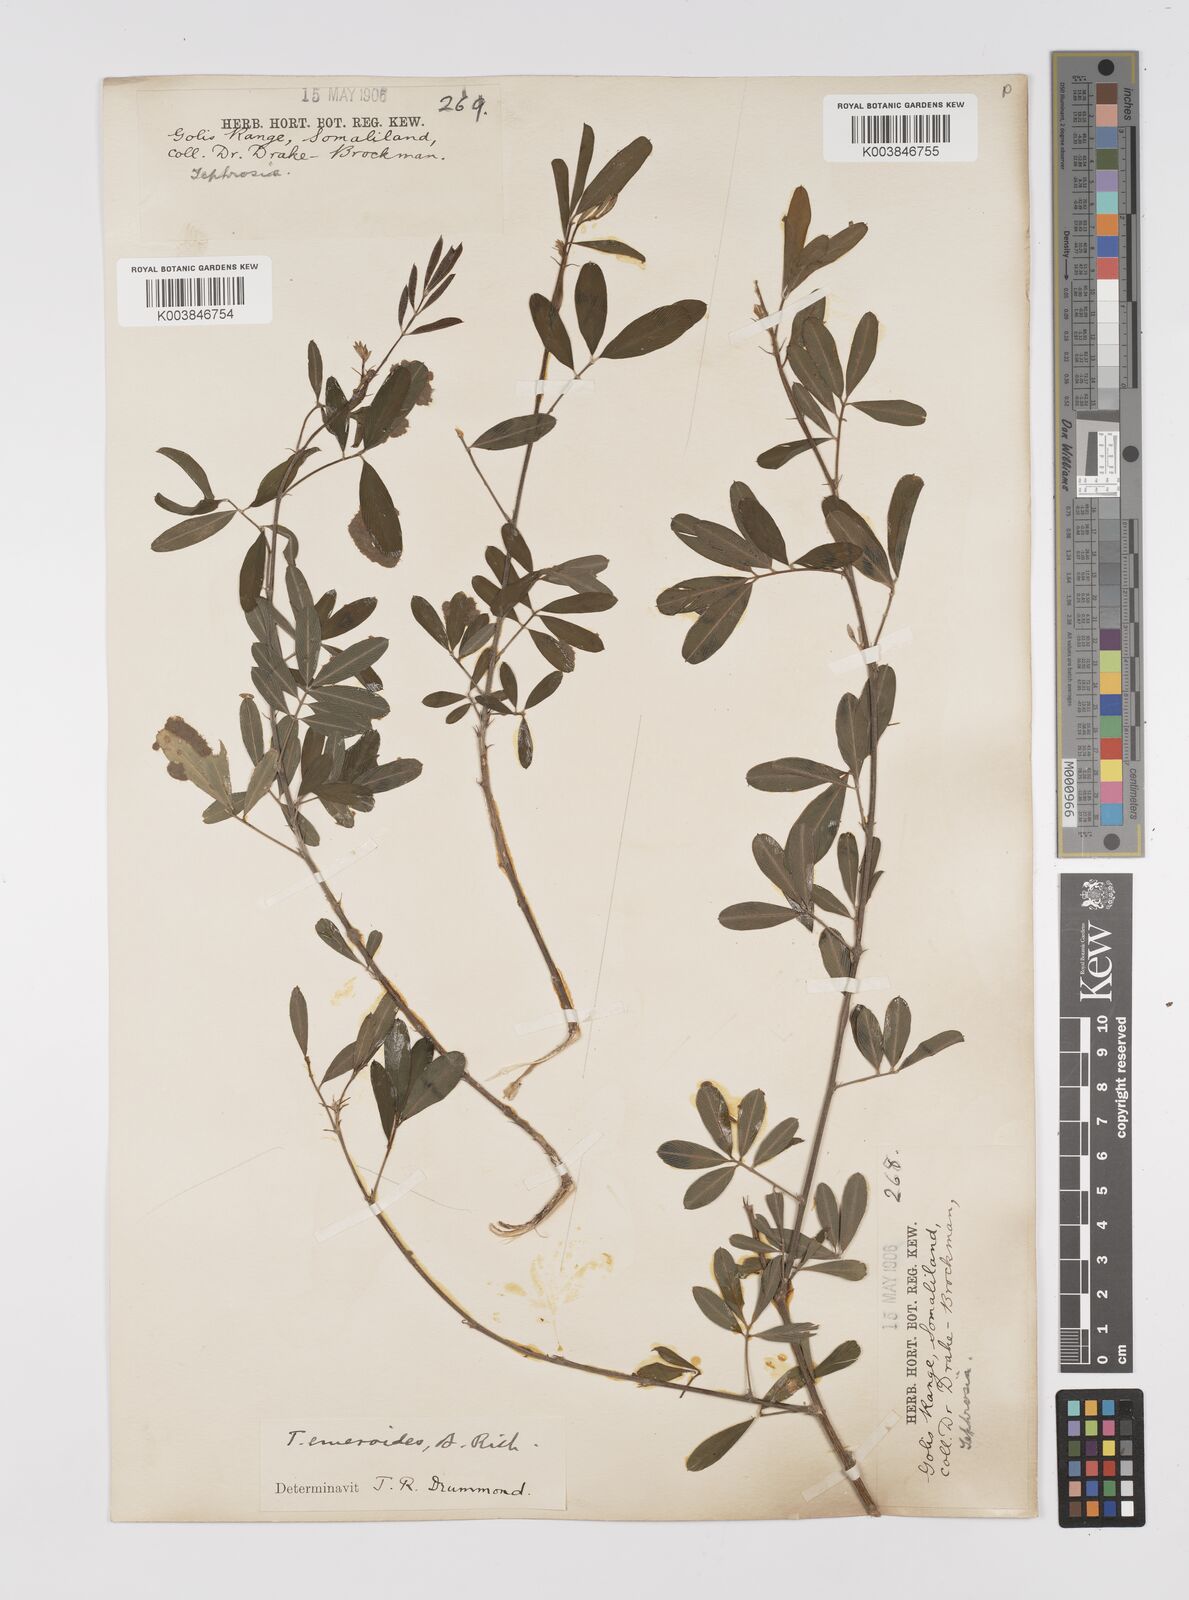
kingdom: Plantae
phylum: Tracheophyta
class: Magnoliopsida
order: Fabales
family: Fabaceae
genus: Tephrosia
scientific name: Tephrosia emeroides
